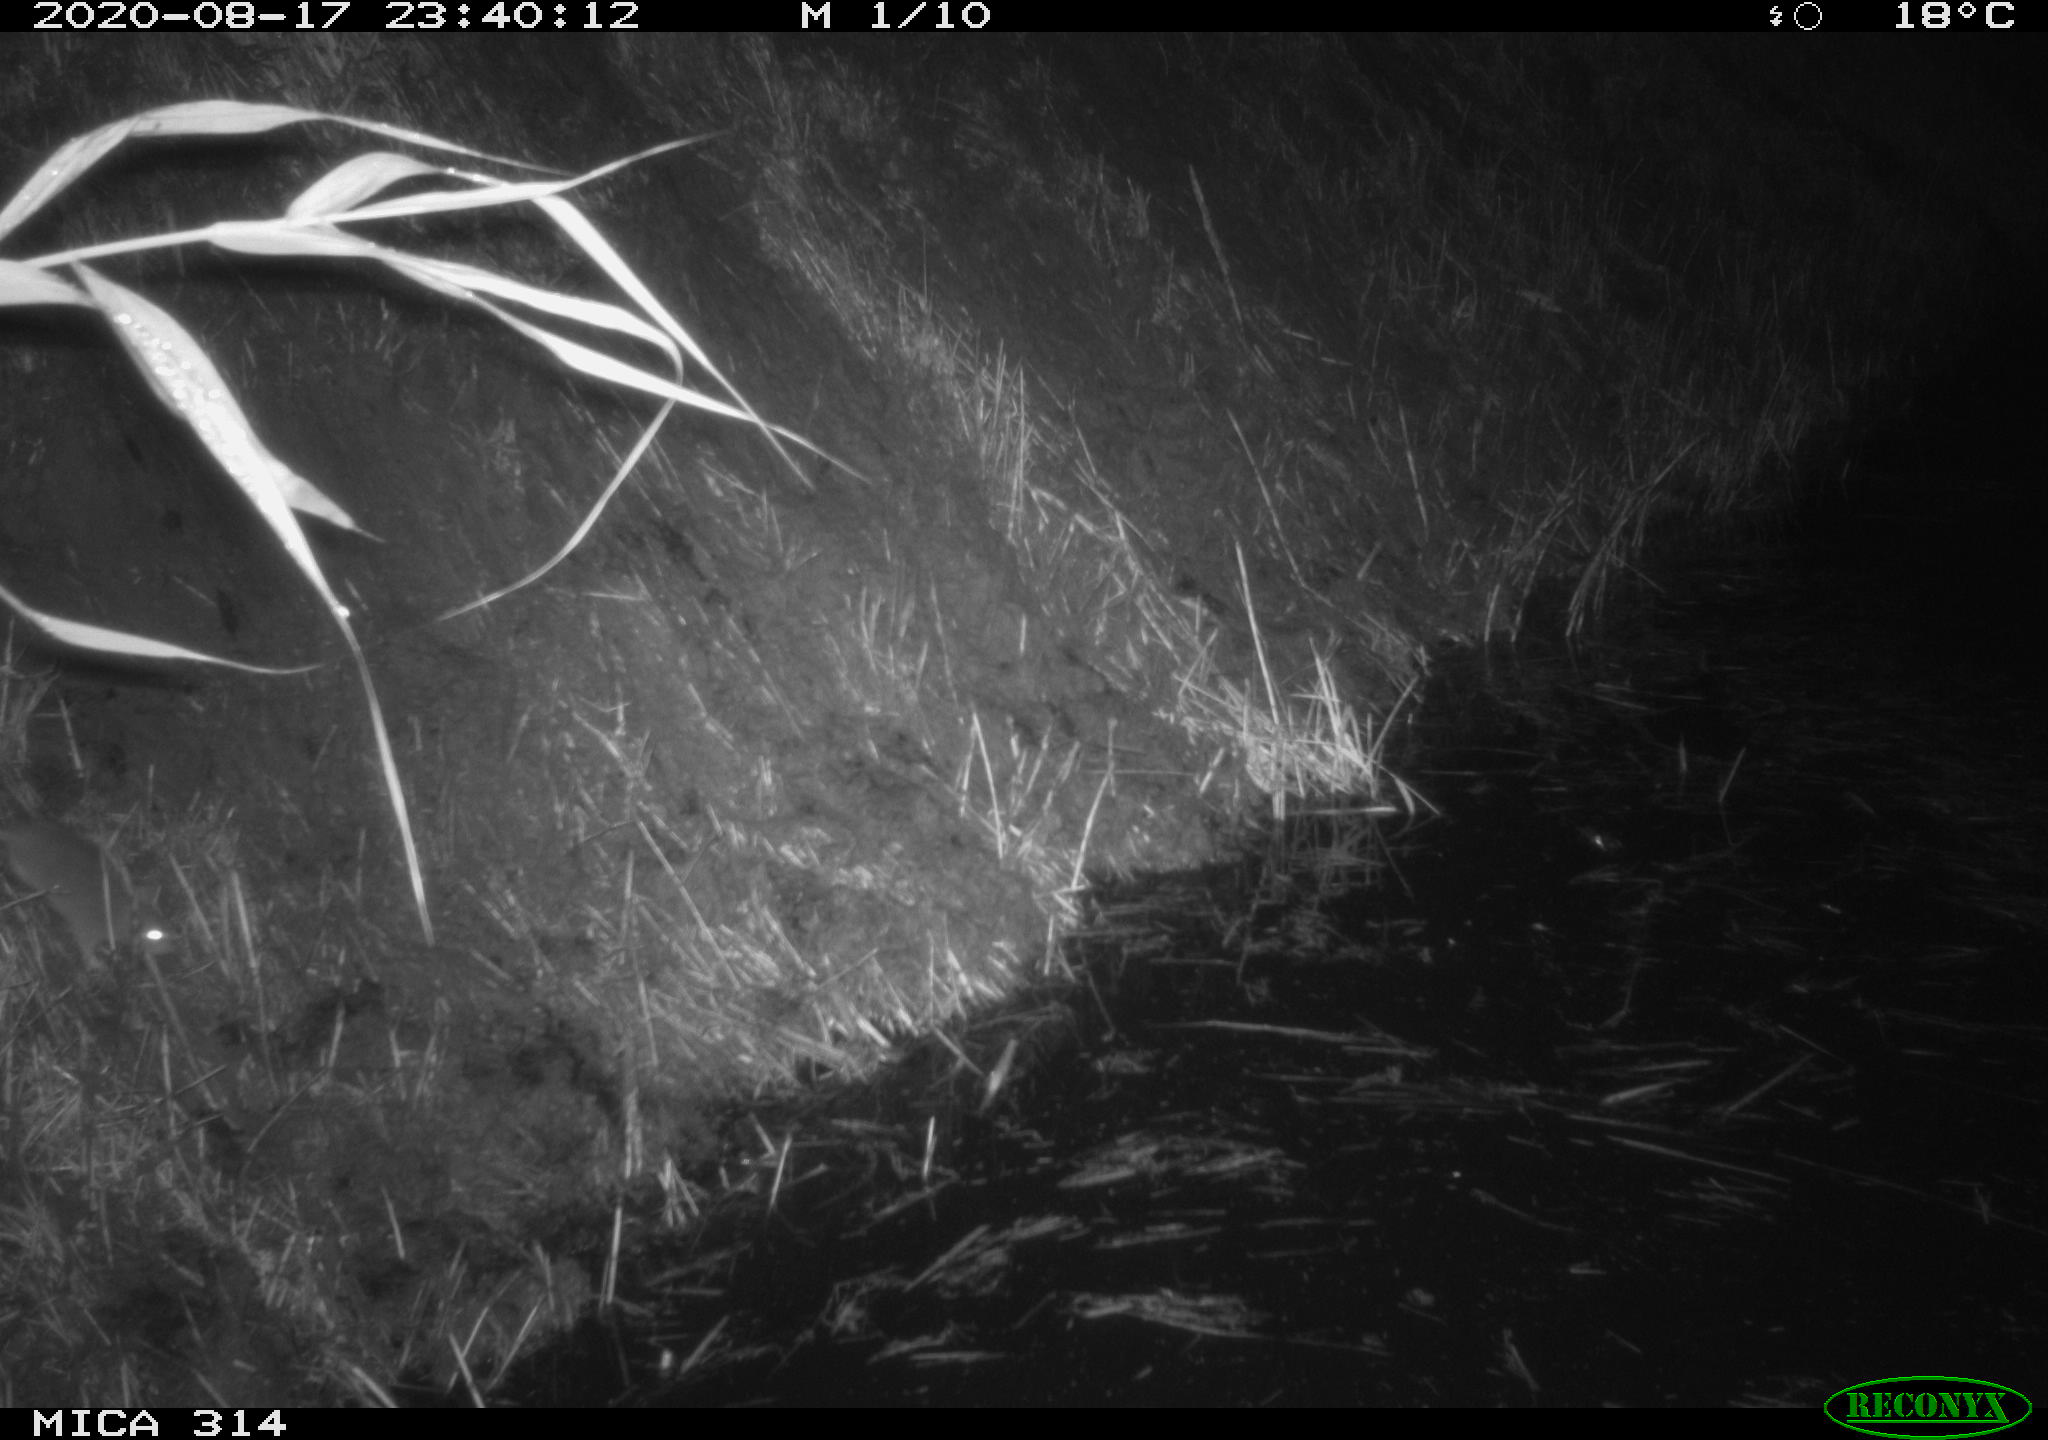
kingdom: Animalia
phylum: Chordata
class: Mammalia
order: Rodentia
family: Muridae
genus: Rattus
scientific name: Rattus norvegicus
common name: Brown rat
